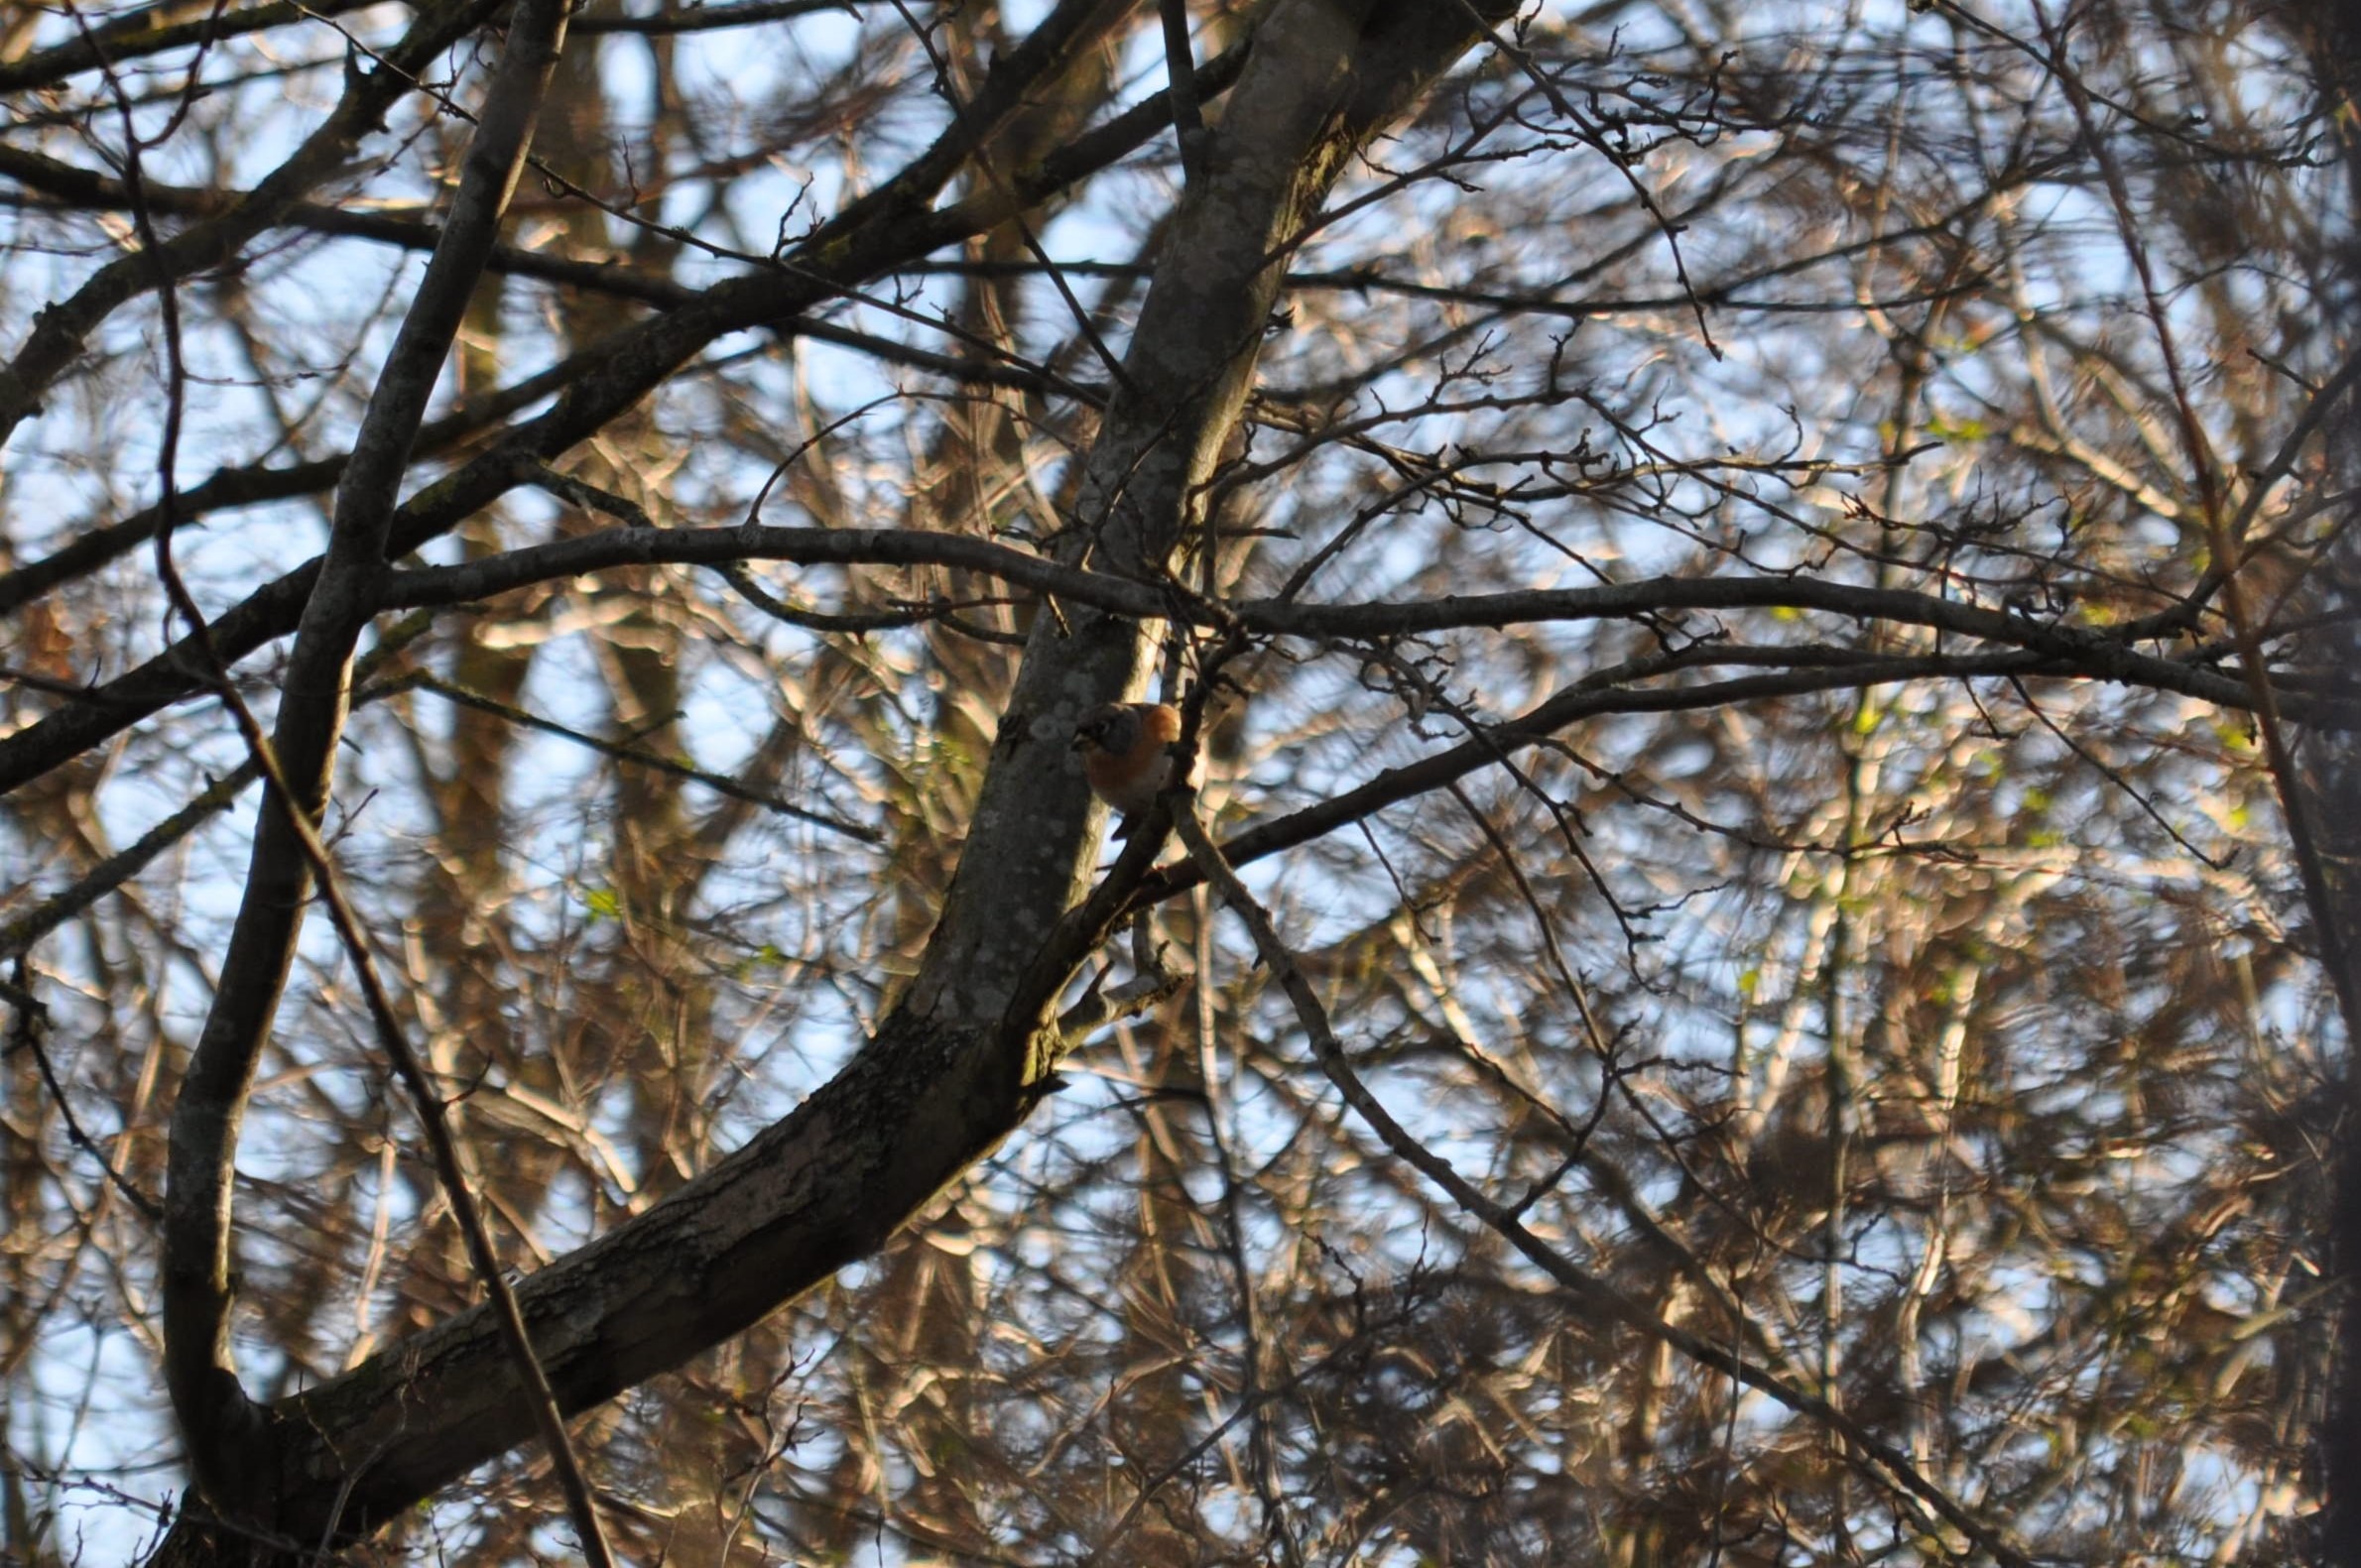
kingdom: Animalia
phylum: Chordata
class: Aves
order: Passeriformes
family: Fringillidae
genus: Fringilla
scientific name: Fringilla montifringilla
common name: Kvækerfinke
